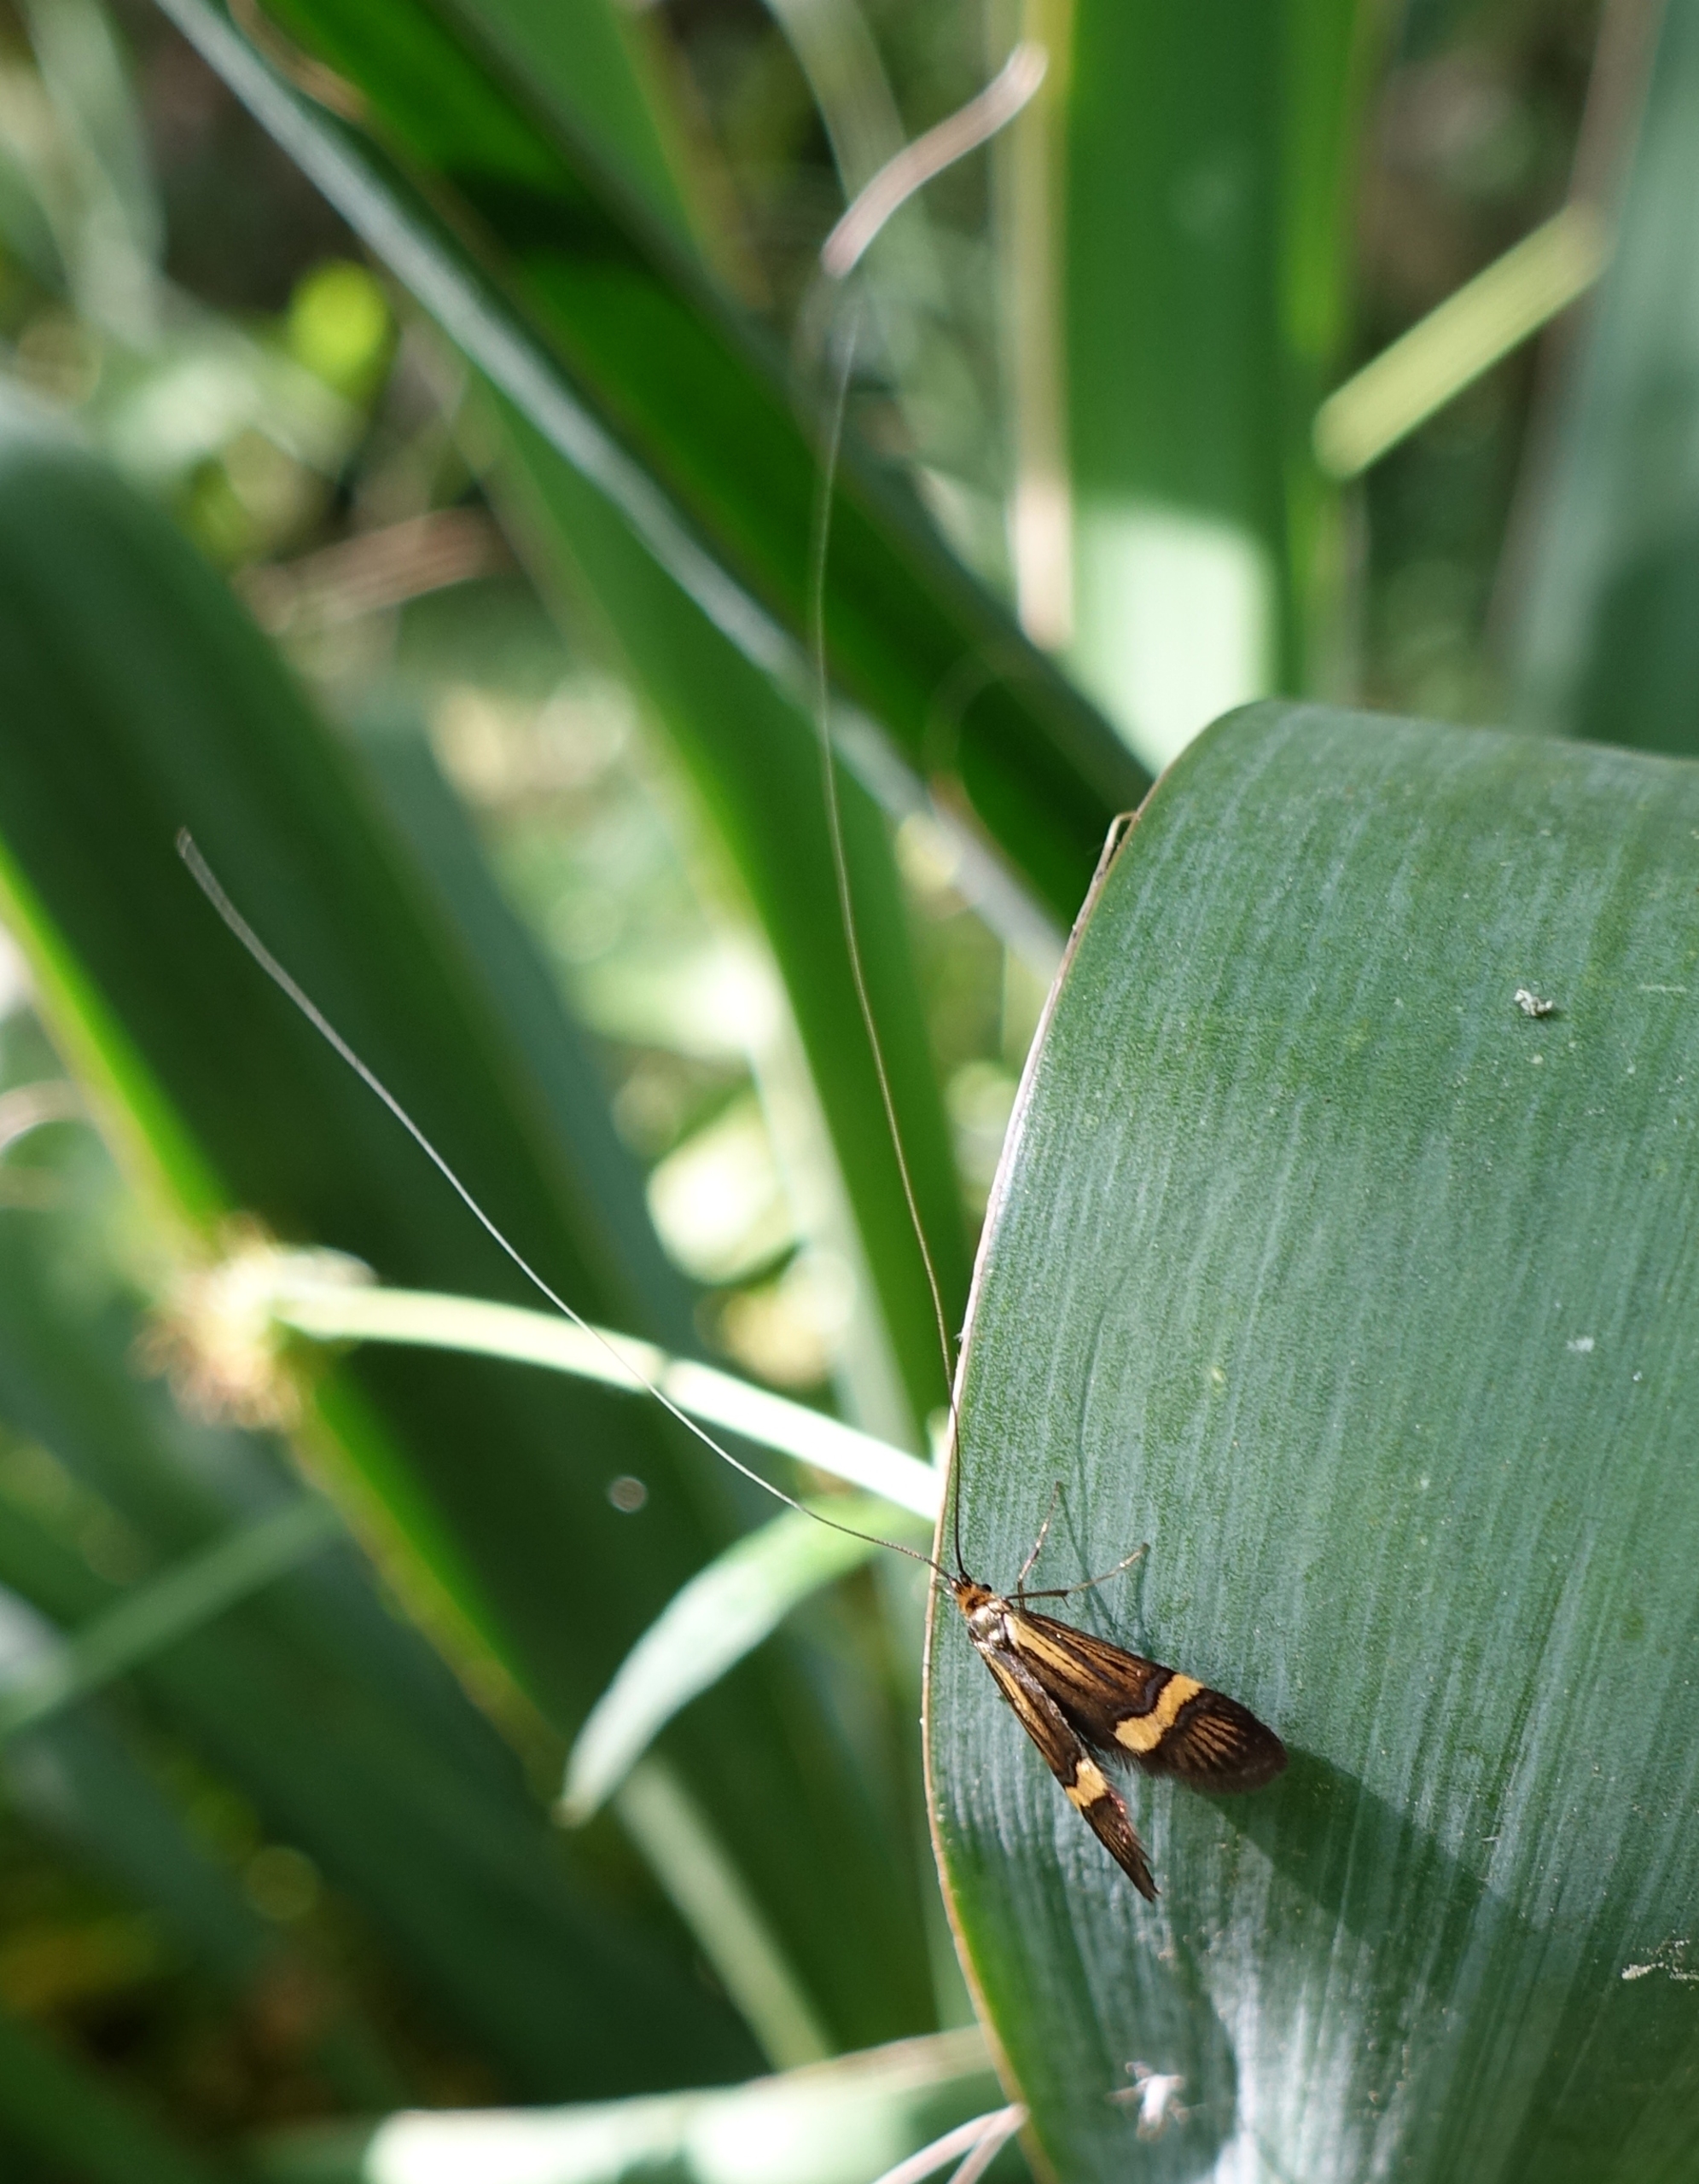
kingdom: Animalia
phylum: Arthropoda
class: Insecta
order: Lepidoptera
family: Adelidae
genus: Nemophora
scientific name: Nemophora degeerella
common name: Løvskovslanghornsmøl
